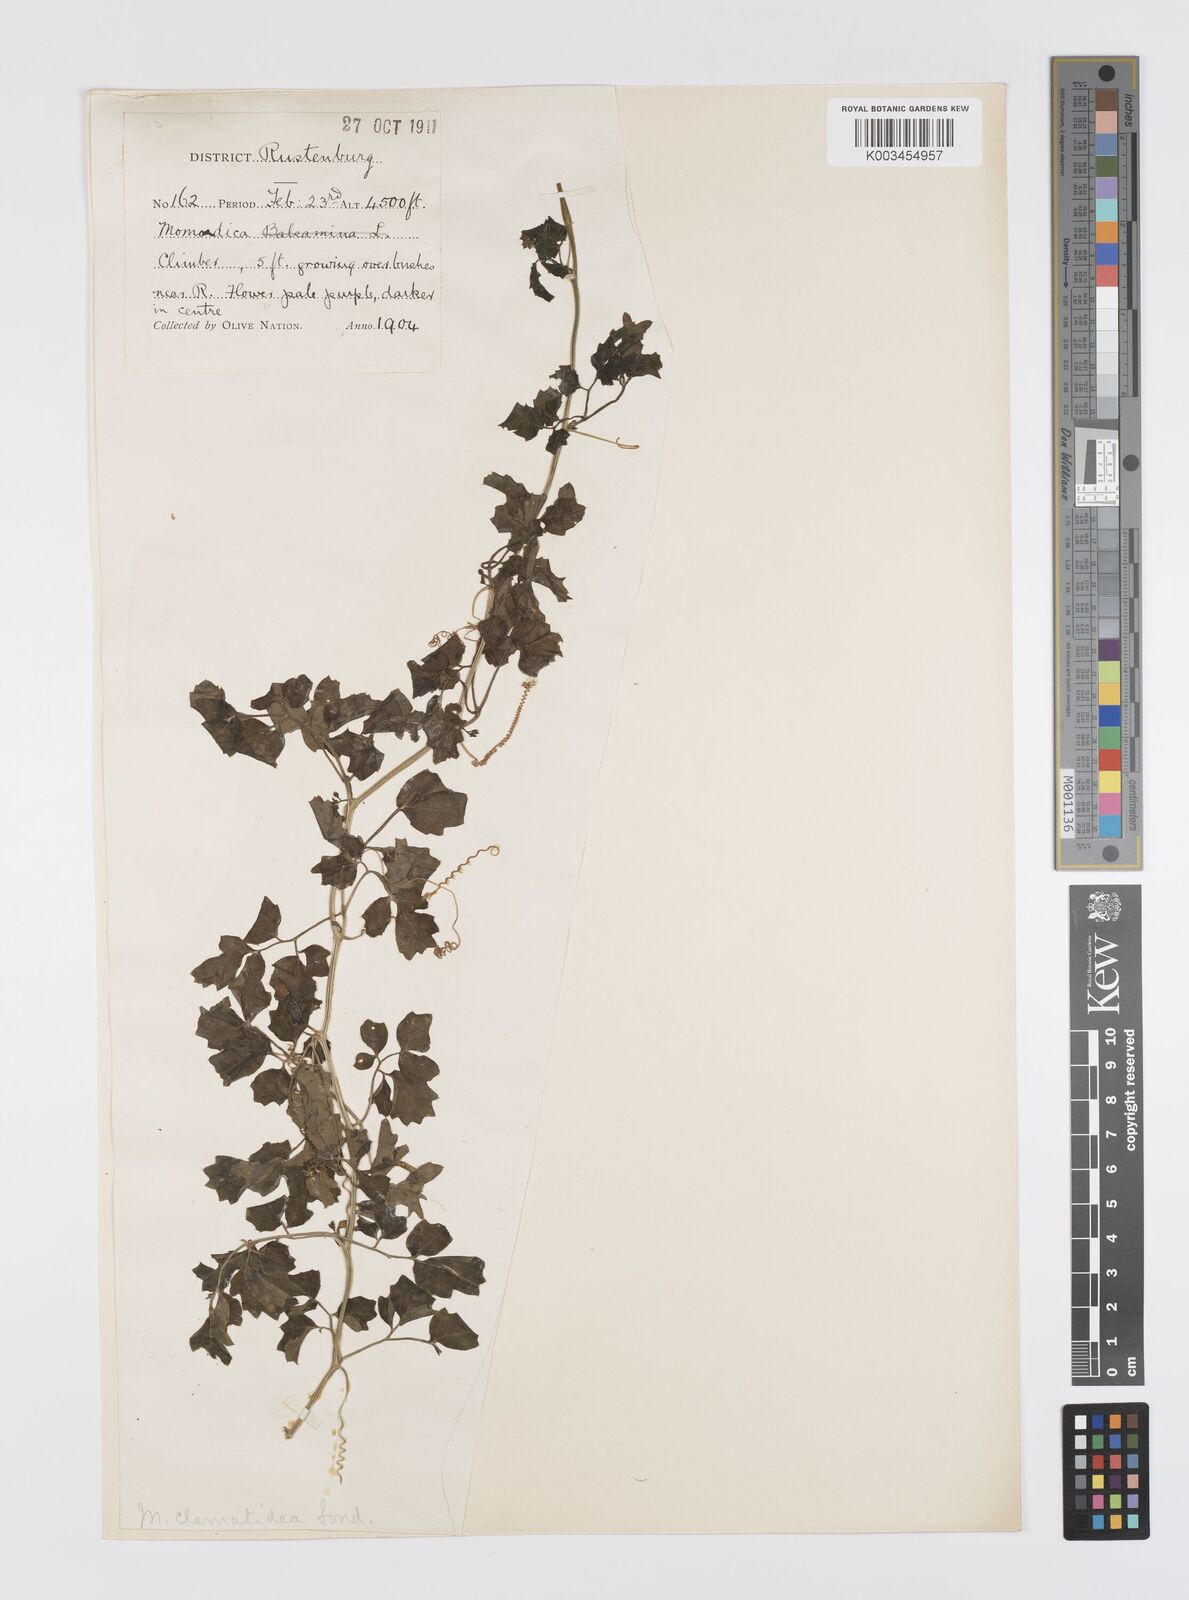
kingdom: Plantae
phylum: Tracheophyta
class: Magnoliopsida
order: Cucurbitales
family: Cucurbitaceae
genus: Momordica
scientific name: Momordica cardiospermoides
